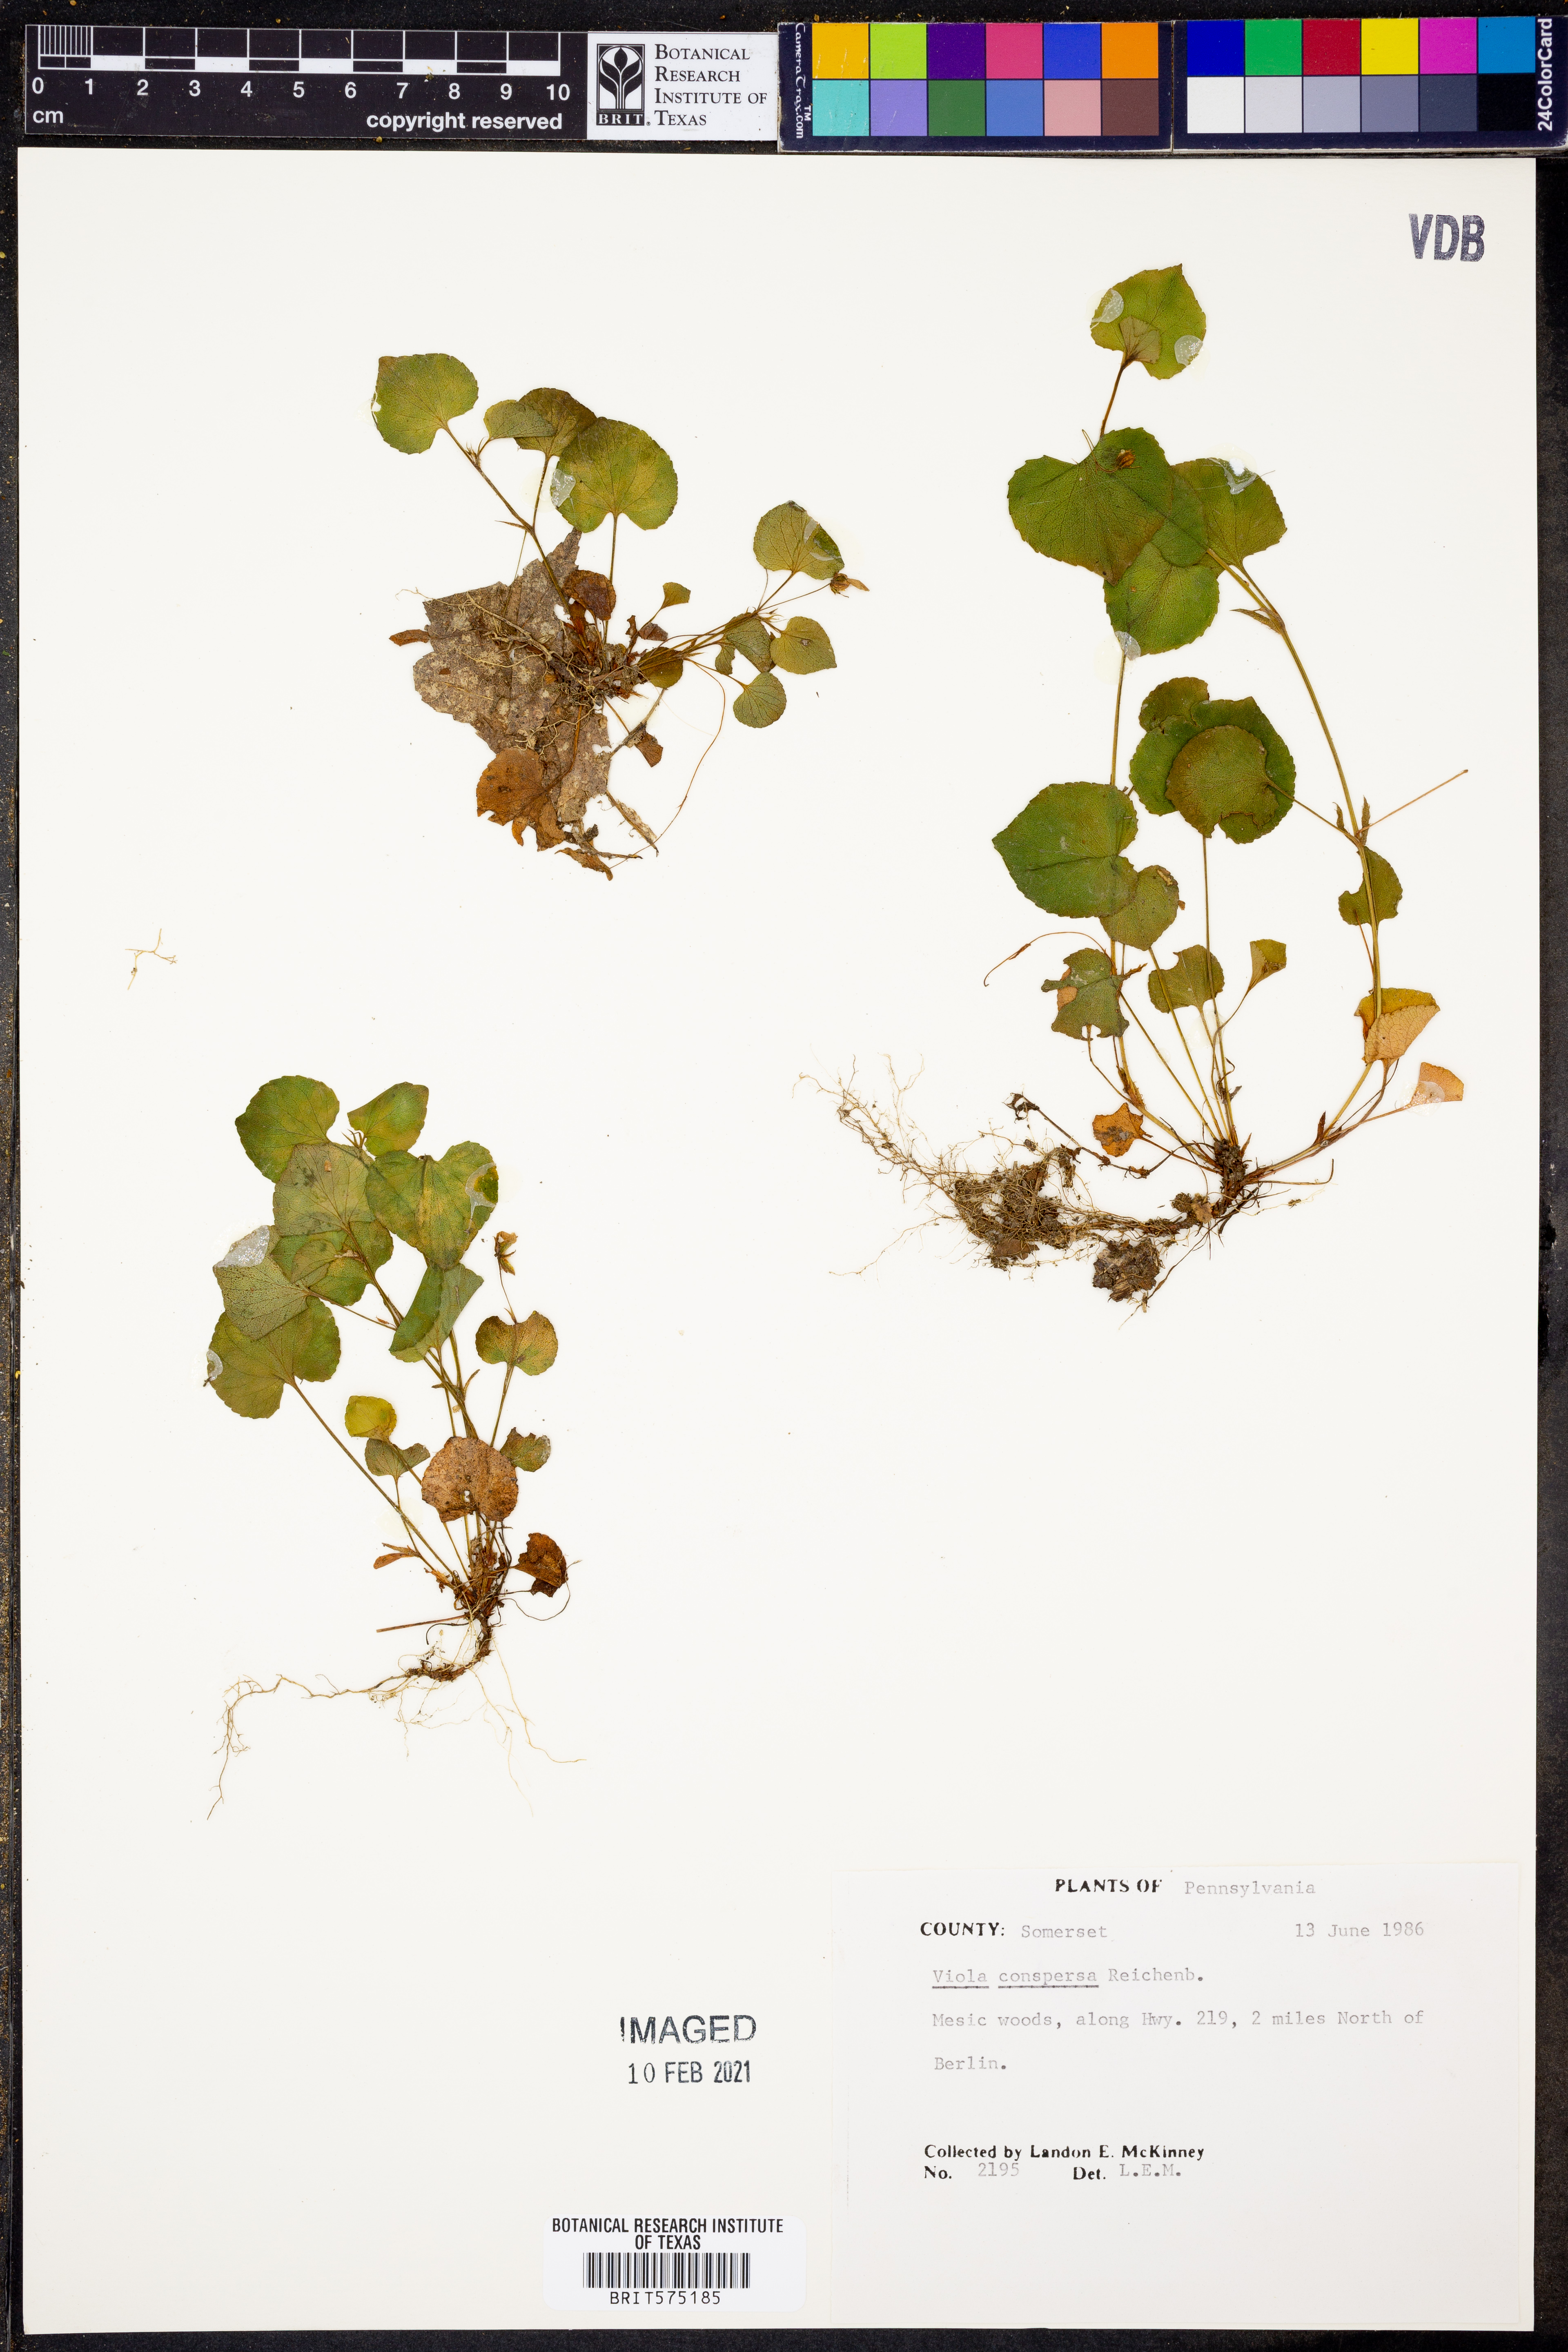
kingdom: Plantae
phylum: Tracheophyta
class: Magnoliopsida
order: Malpighiales
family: Violaceae
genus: Viola
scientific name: Viola labradorica
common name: Labrador violet
